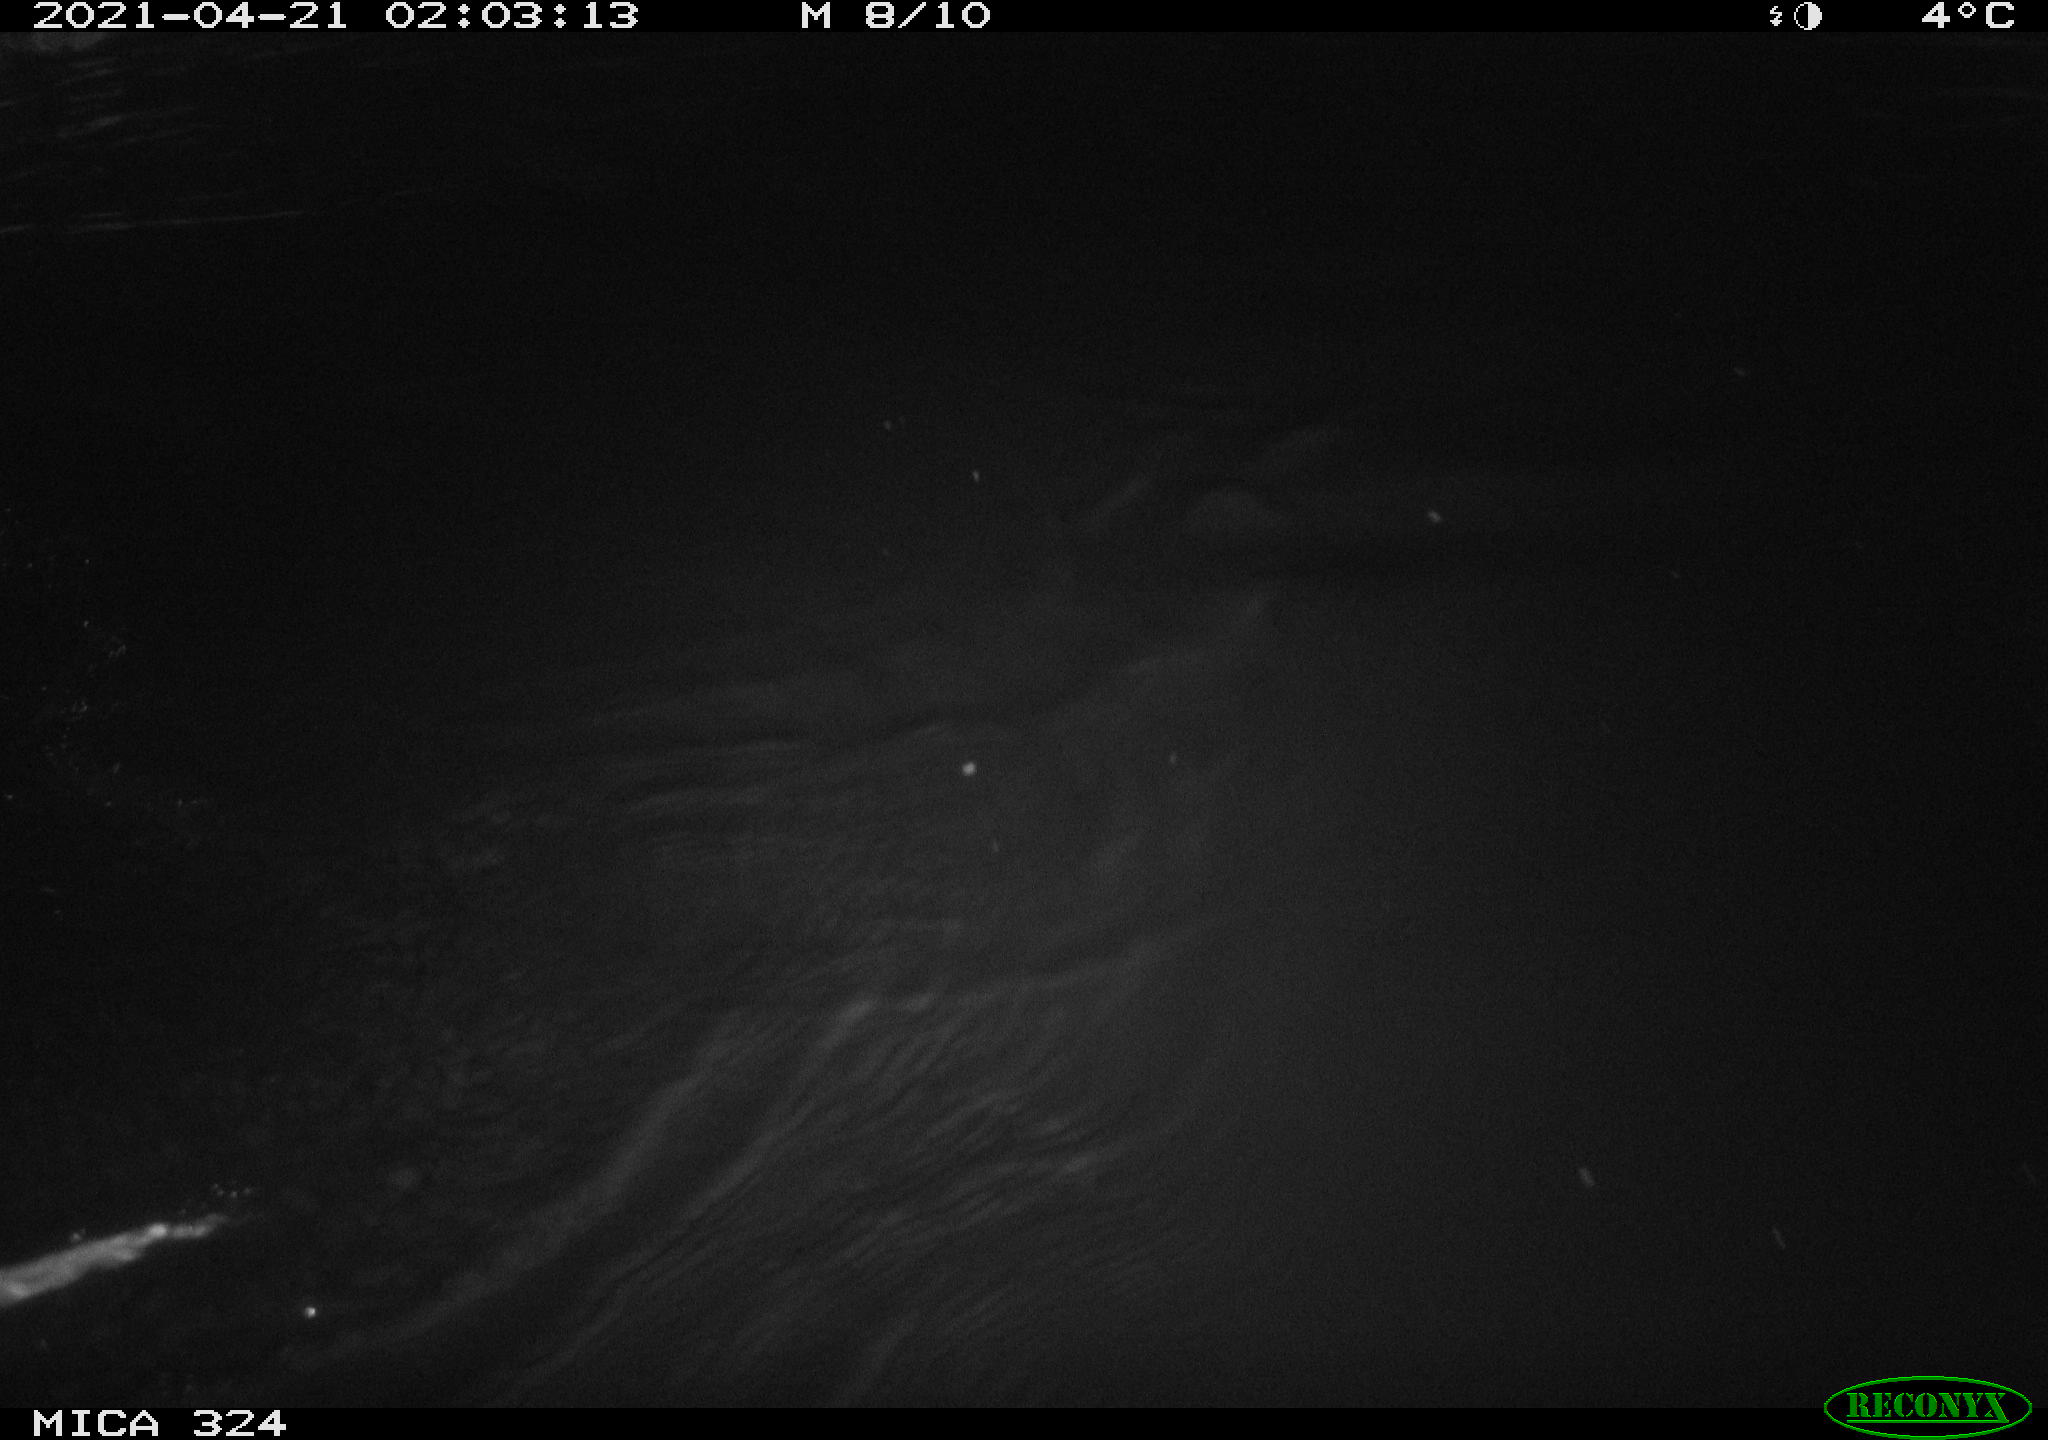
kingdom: Animalia
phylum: Chordata
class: Mammalia
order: Rodentia
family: Myocastoridae
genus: Myocastor
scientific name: Myocastor coypus
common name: Coypu
